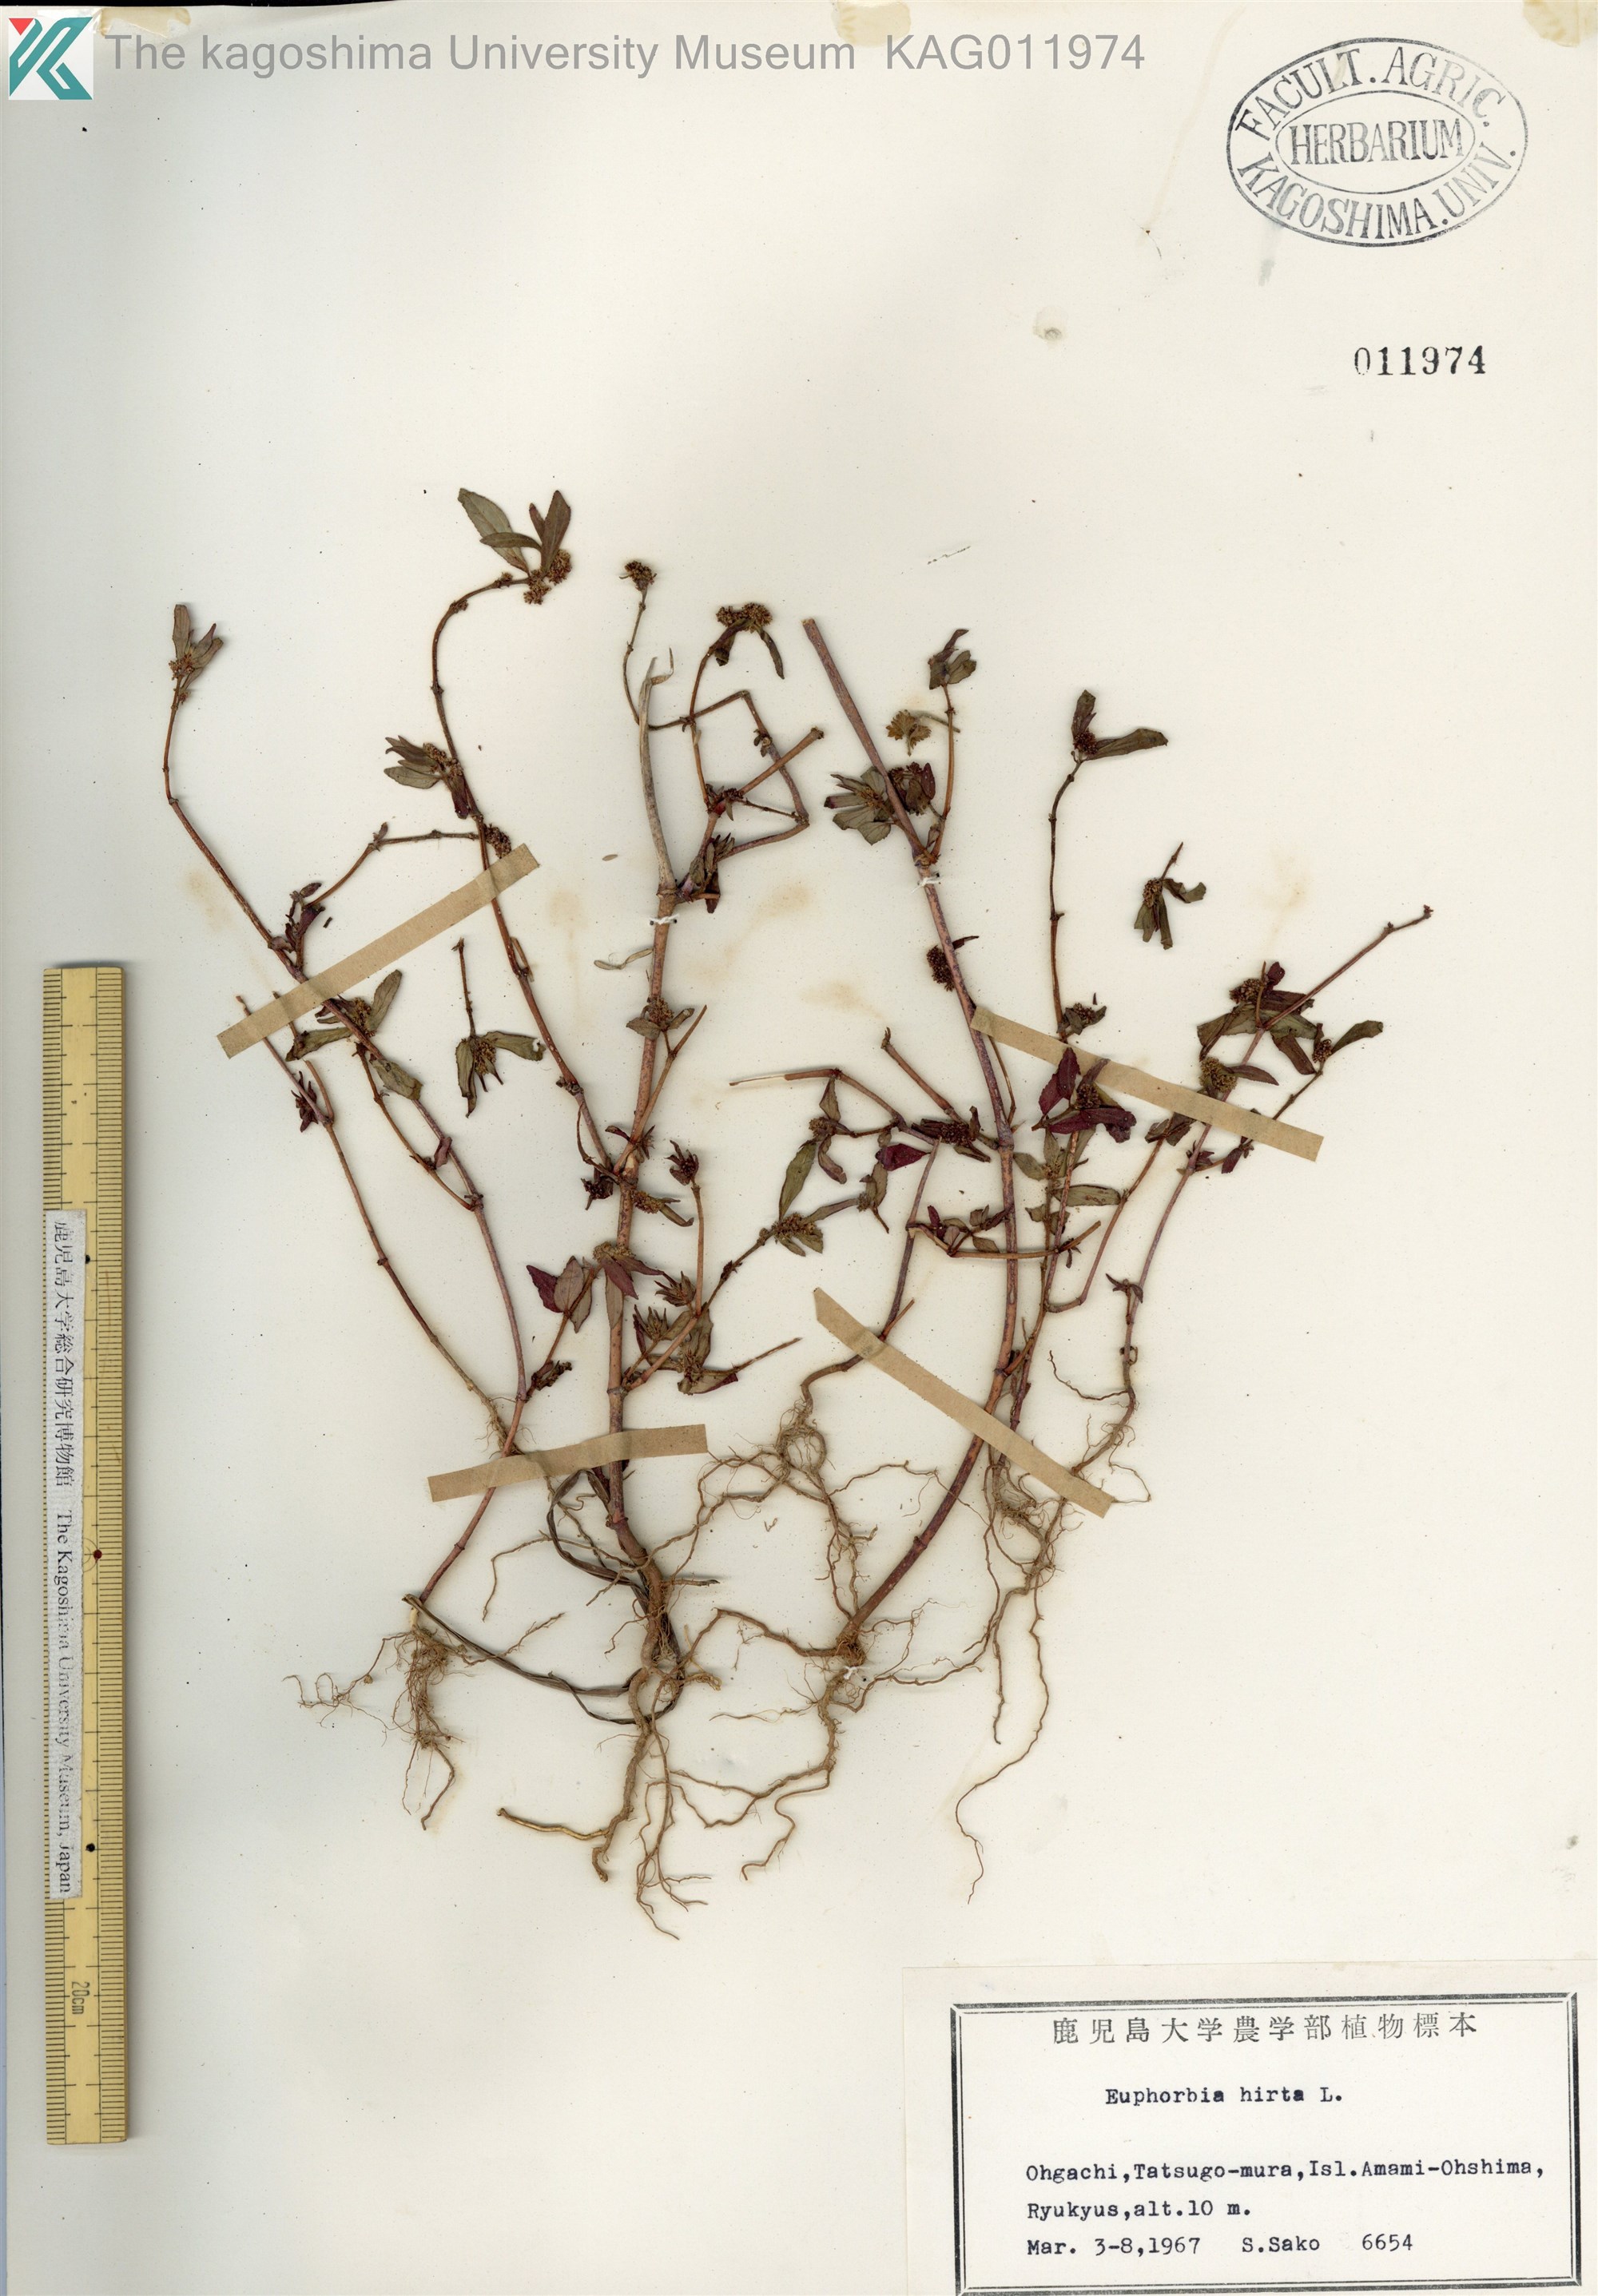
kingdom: Plantae
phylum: Tracheophyta
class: Magnoliopsida
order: Malpighiales
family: Euphorbiaceae
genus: Euphorbia
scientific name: Euphorbia hirta
